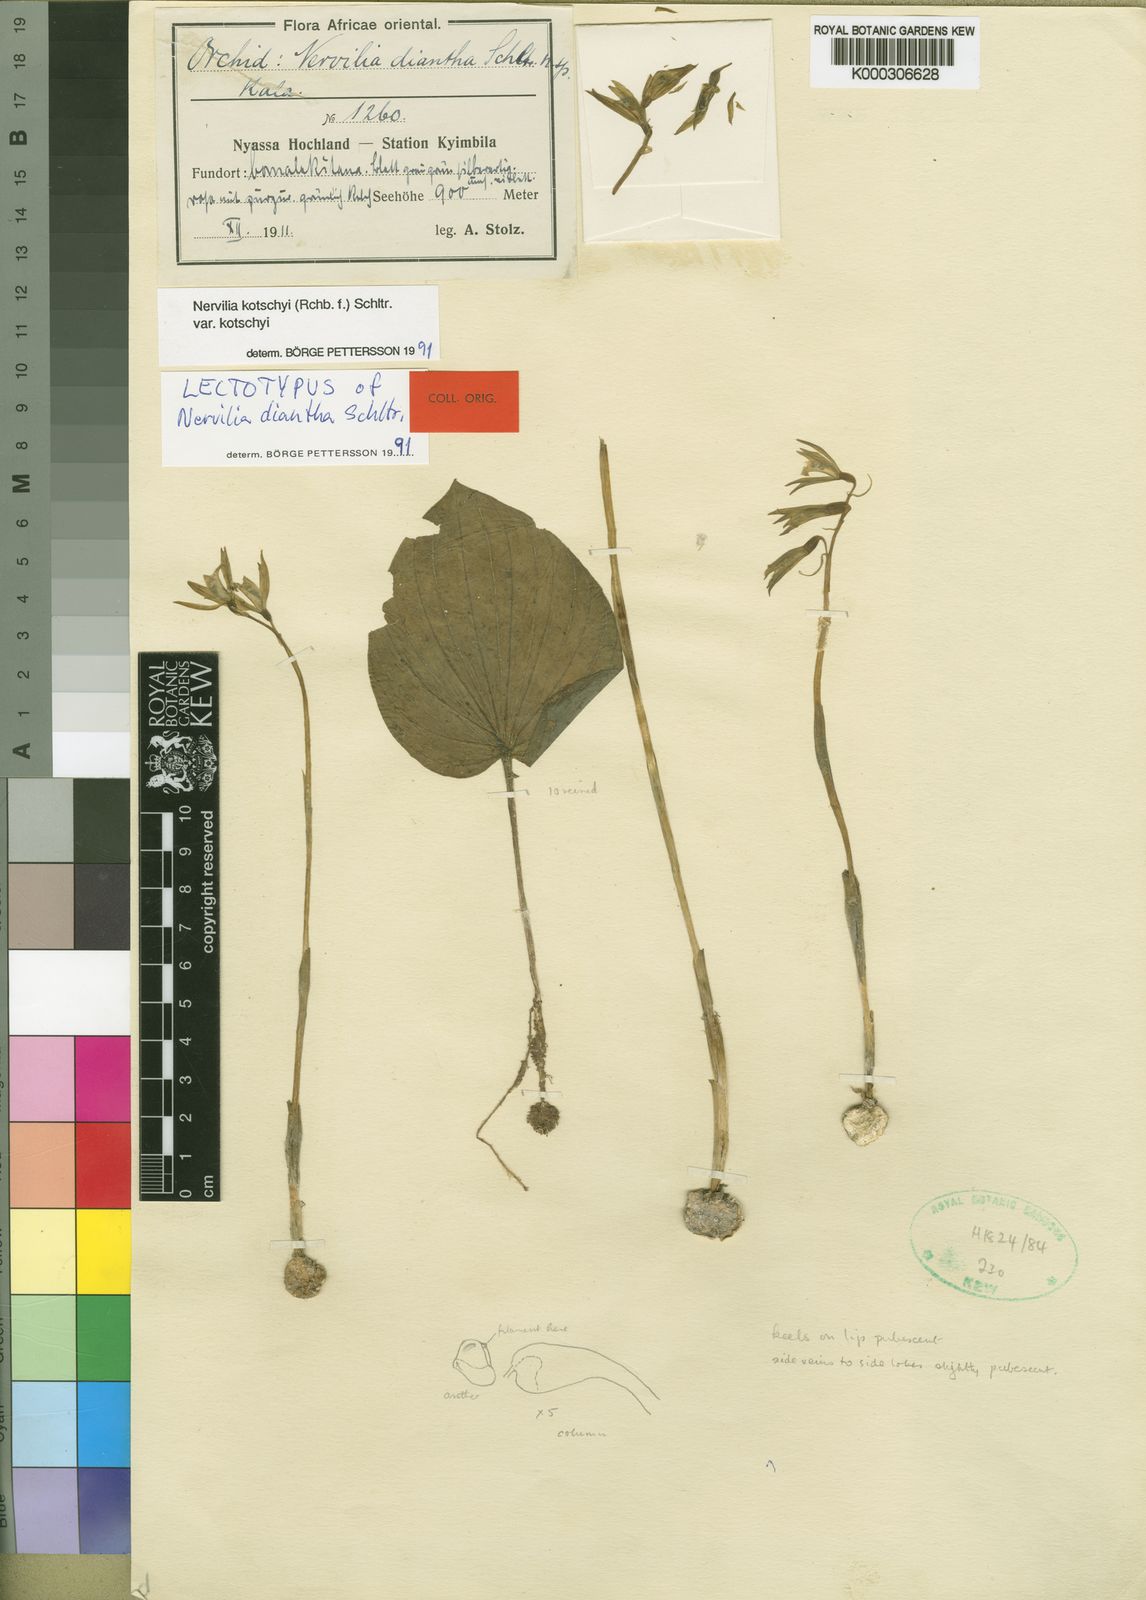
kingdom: Plantae
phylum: Tracheophyta
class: Liliopsida
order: Asparagales
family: Orchidaceae
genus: Nervilia
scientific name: Nervilia kotschyi
